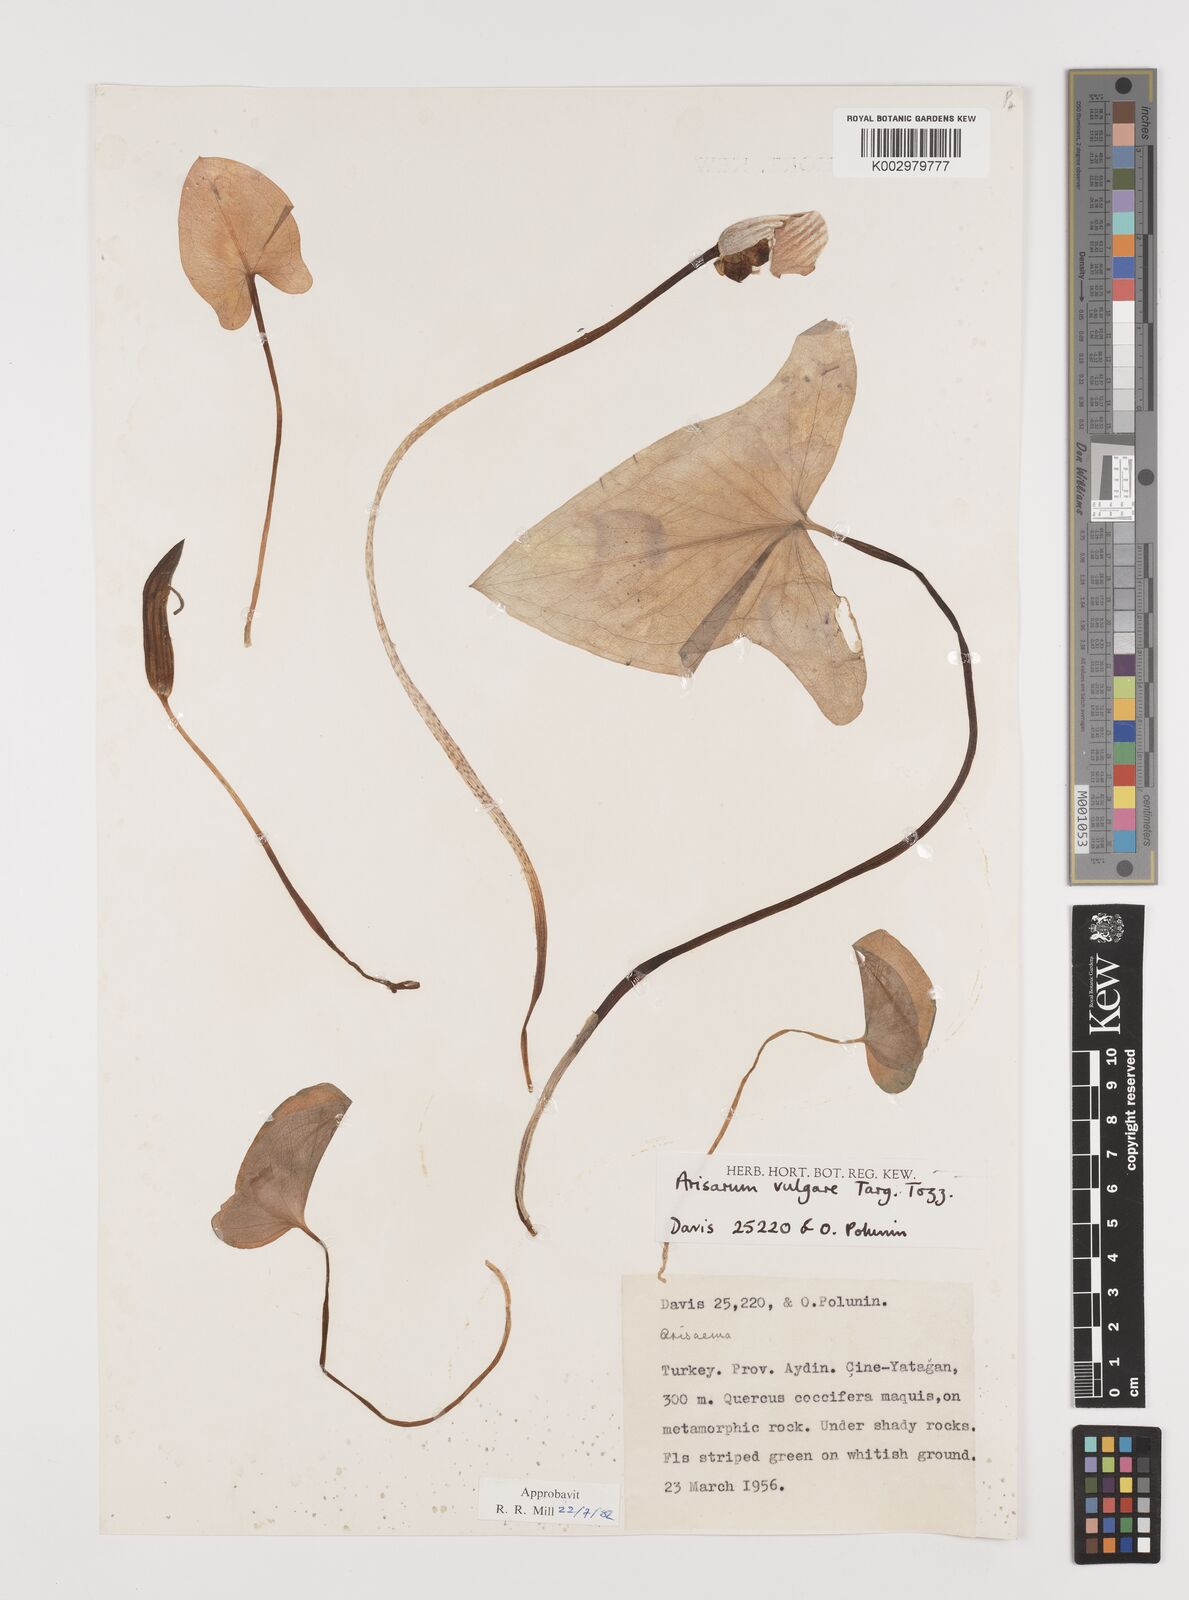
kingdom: Plantae
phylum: Tracheophyta
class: Liliopsida
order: Alismatales
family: Araceae
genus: Arisarum
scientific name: Arisarum vulgare
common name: Common arisarum
